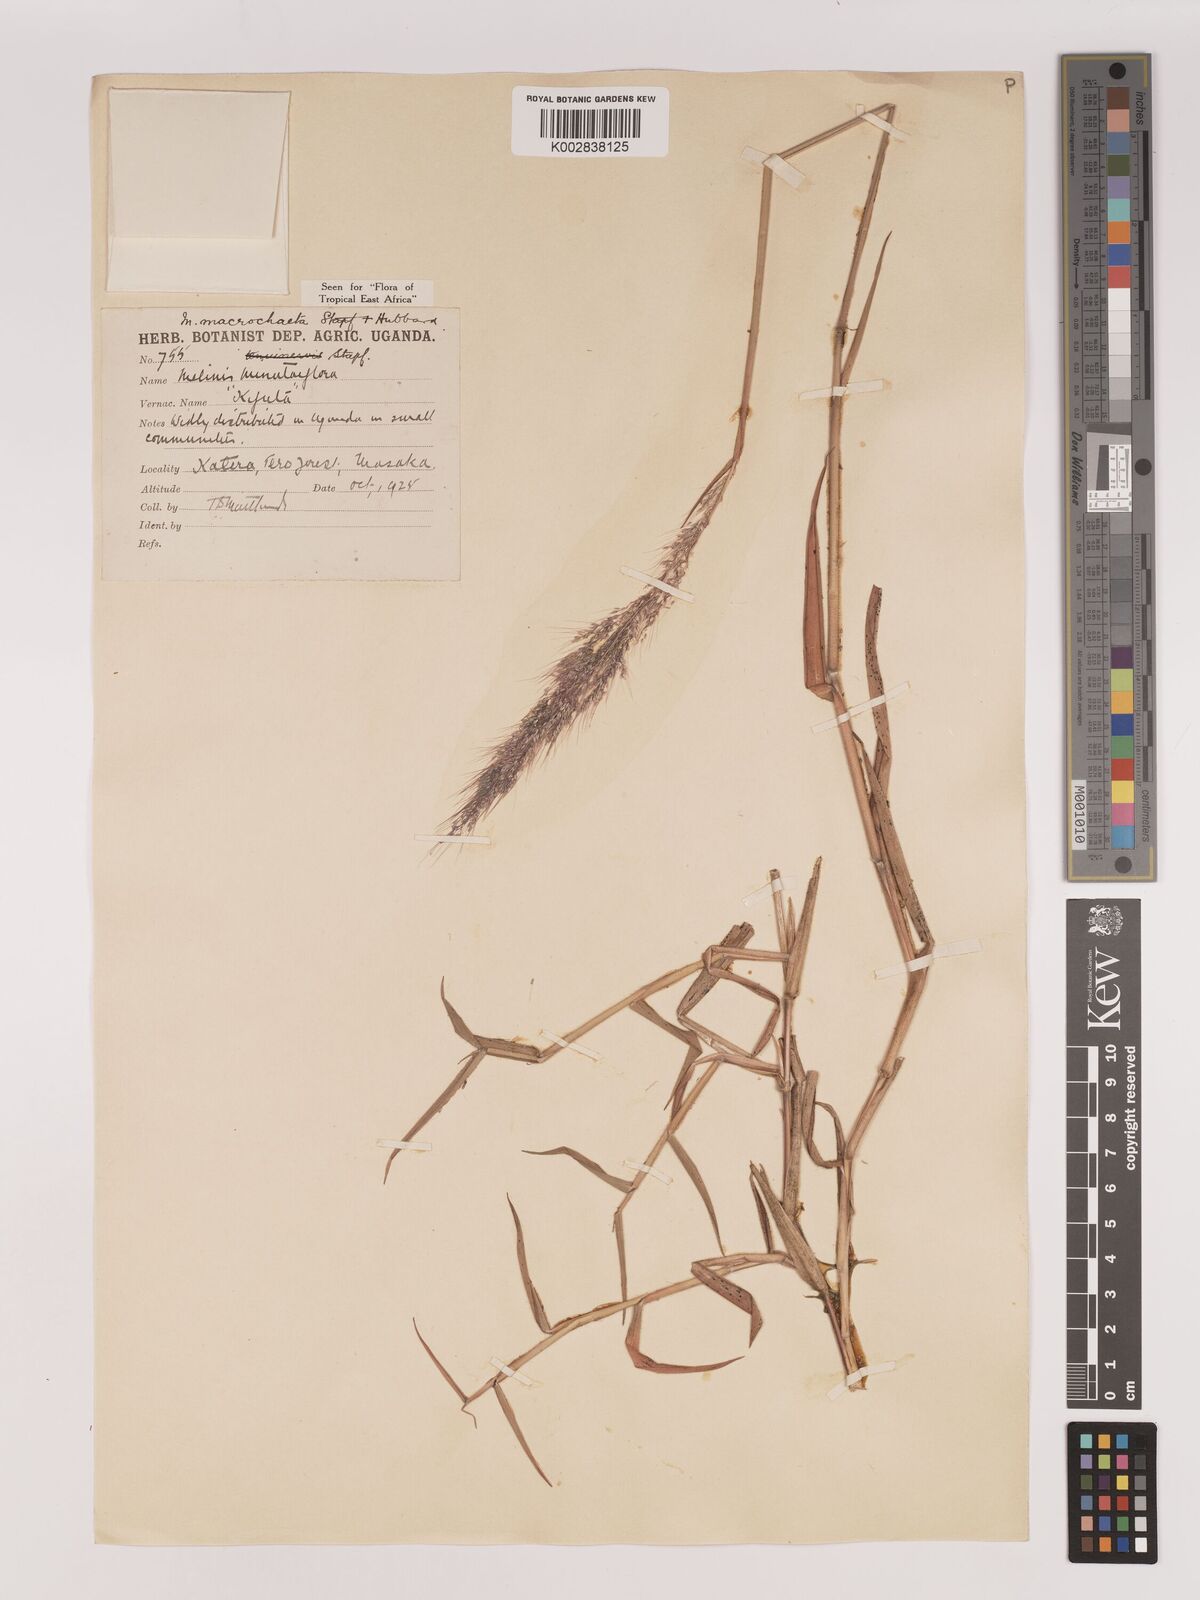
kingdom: Plantae
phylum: Tracheophyta
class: Liliopsida
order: Poales
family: Poaceae
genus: Melinis
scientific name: Melinis macrochaeta
